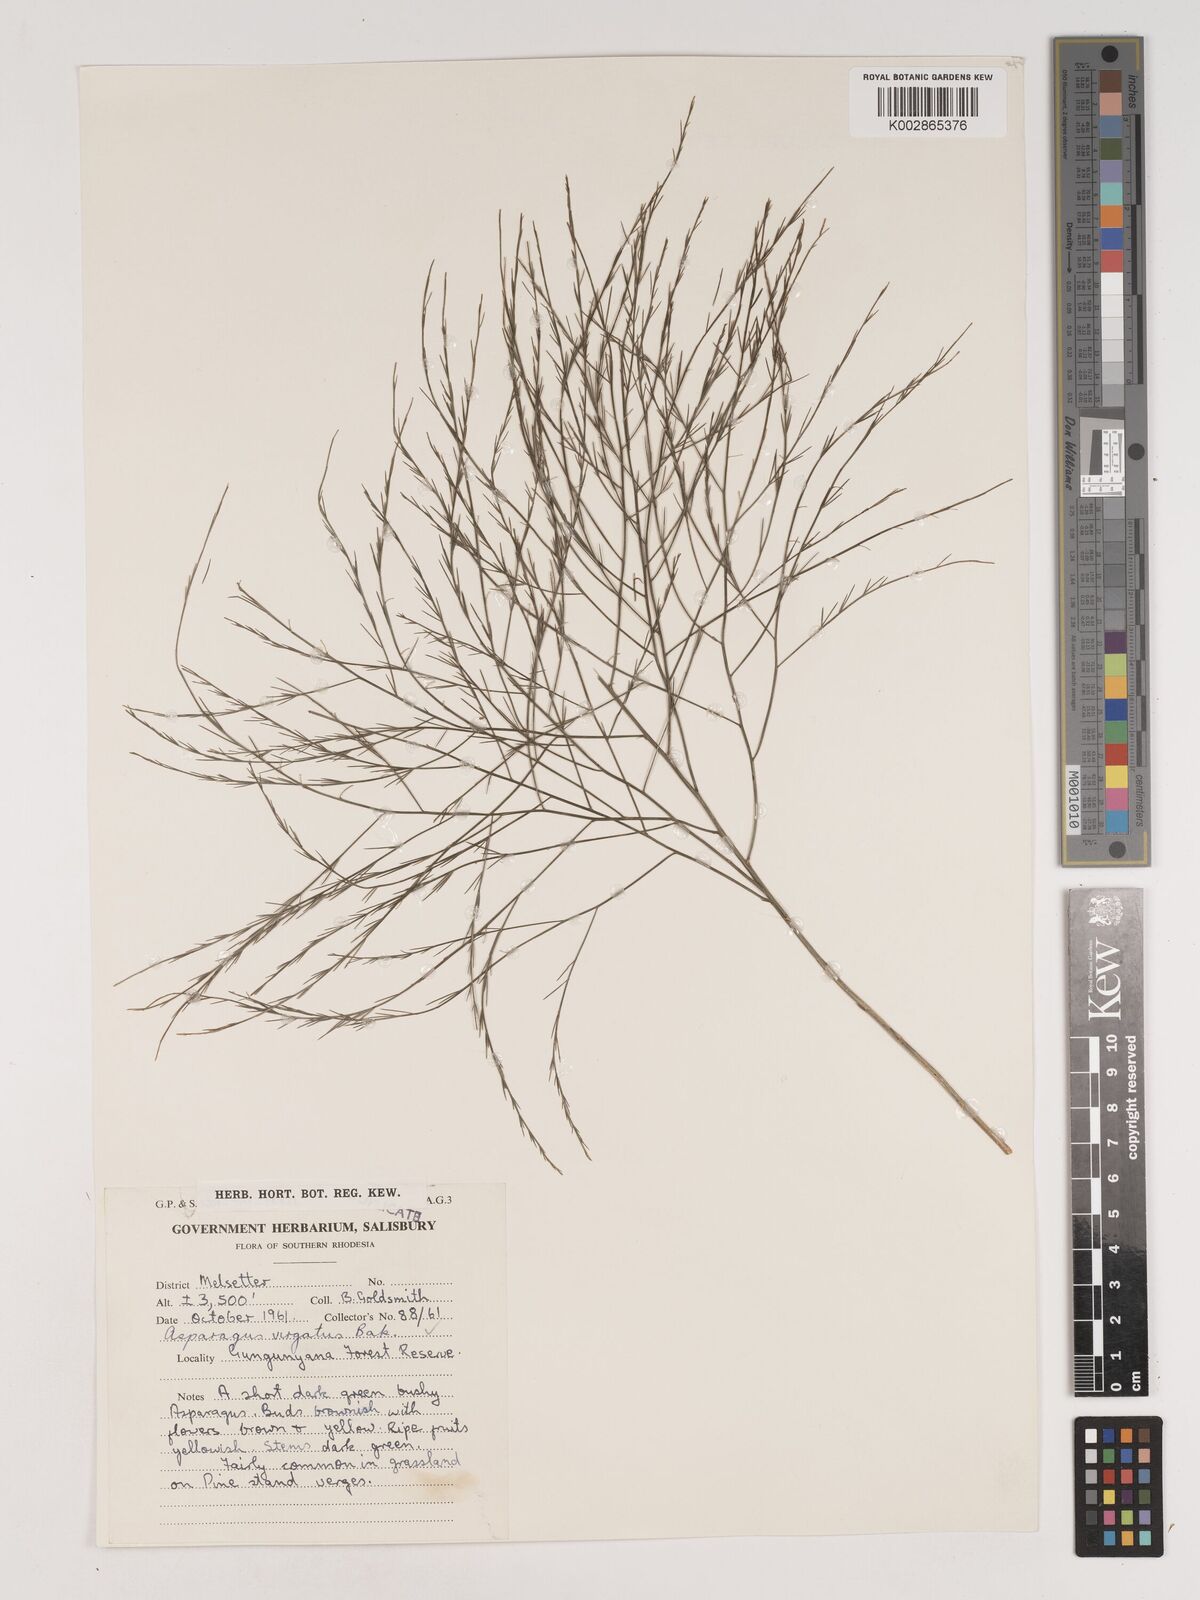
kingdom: Plantae
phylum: Tracheophyta
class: Liliopsida
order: Asparagales
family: Asparagaceae
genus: Asparagus
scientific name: Asparagus virgatus
